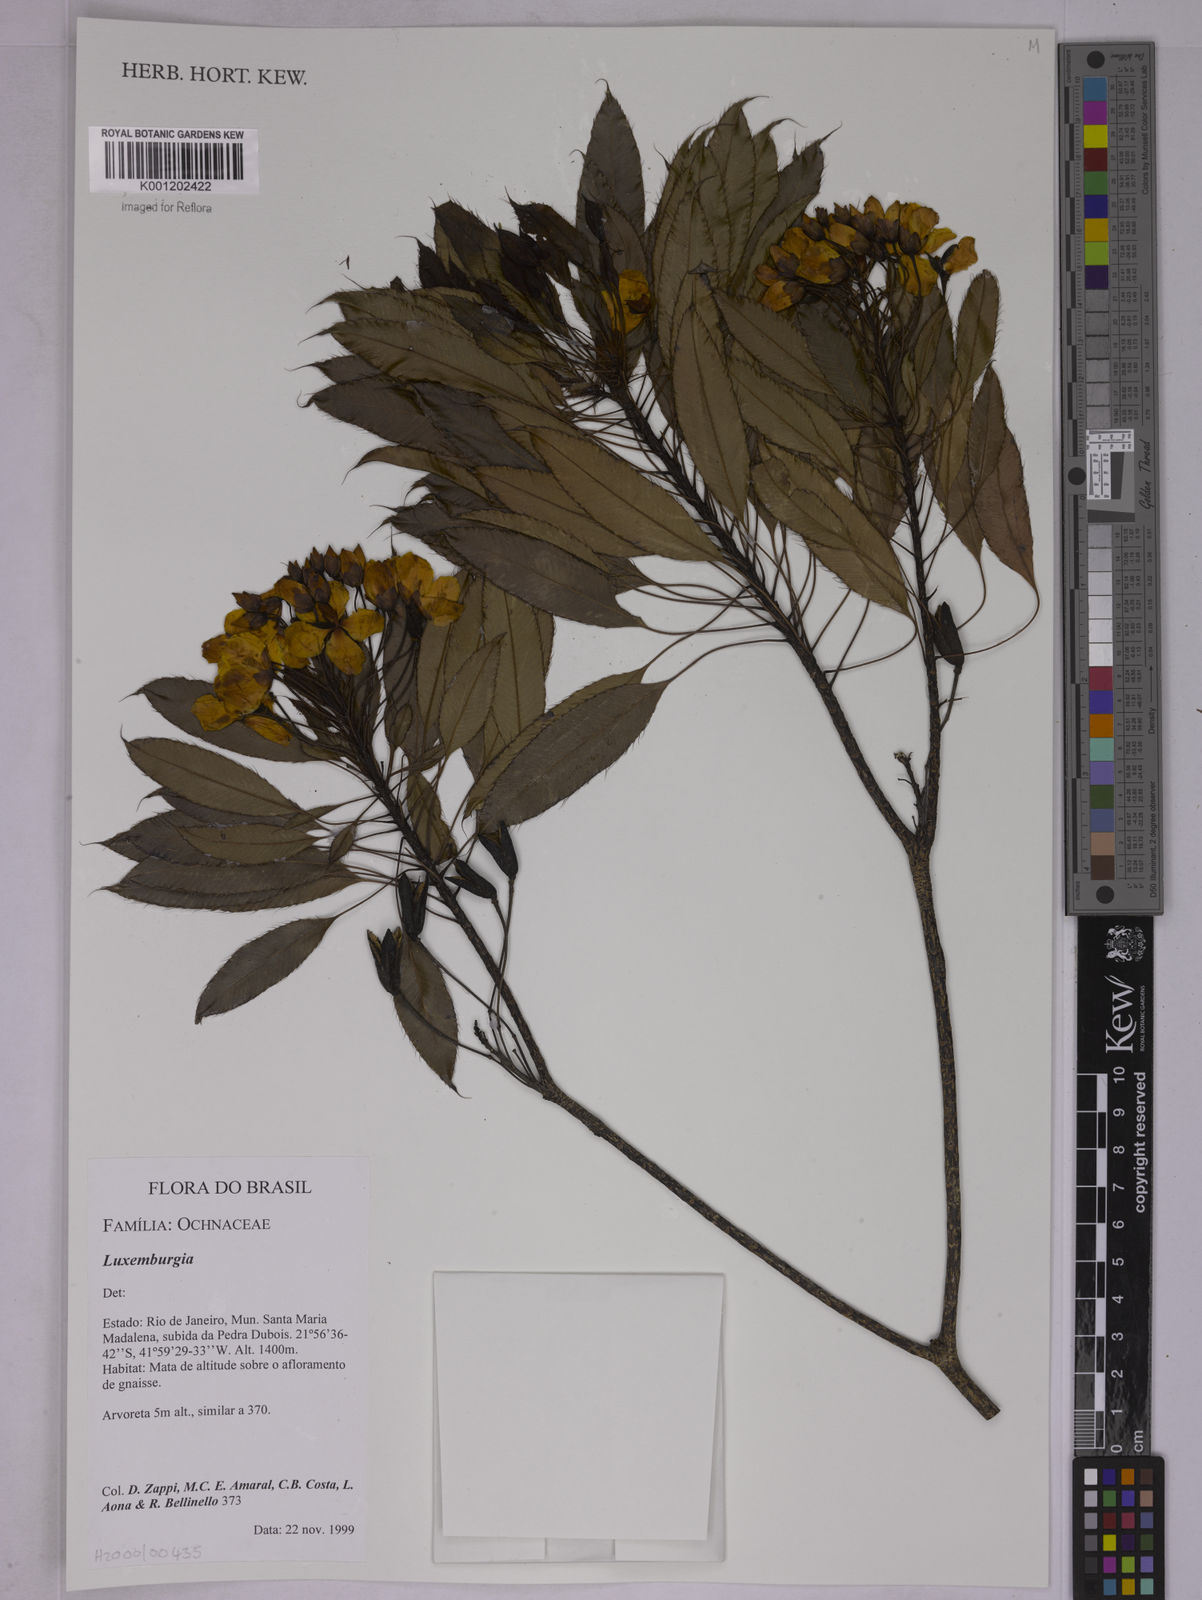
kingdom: Plantae
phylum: Tracheophyta
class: Magnoliopsida
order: Malpighiales
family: Ochnaceae
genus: Luxemburgia
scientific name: Luxemburgia
